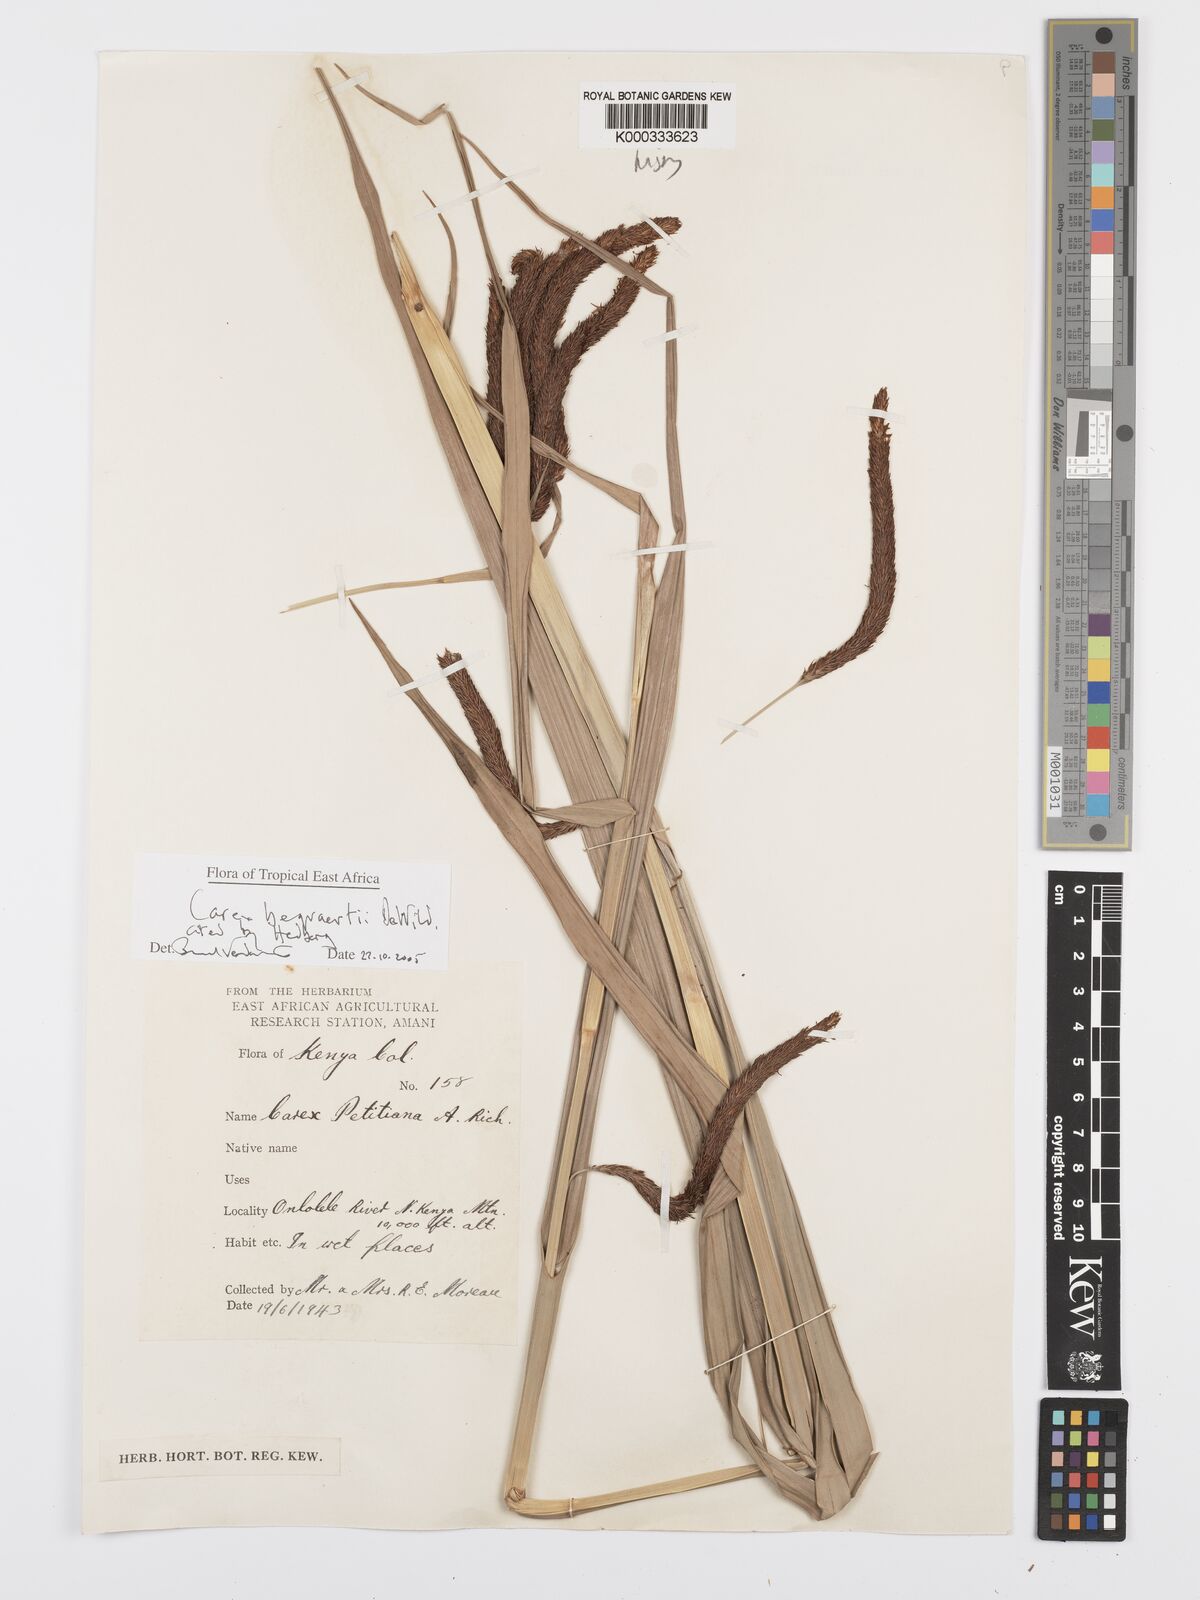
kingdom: Plantae
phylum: Tracheophyta
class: Liliopsida
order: Poales
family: Cyperaceae
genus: Carex
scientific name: Carex bequaertii
